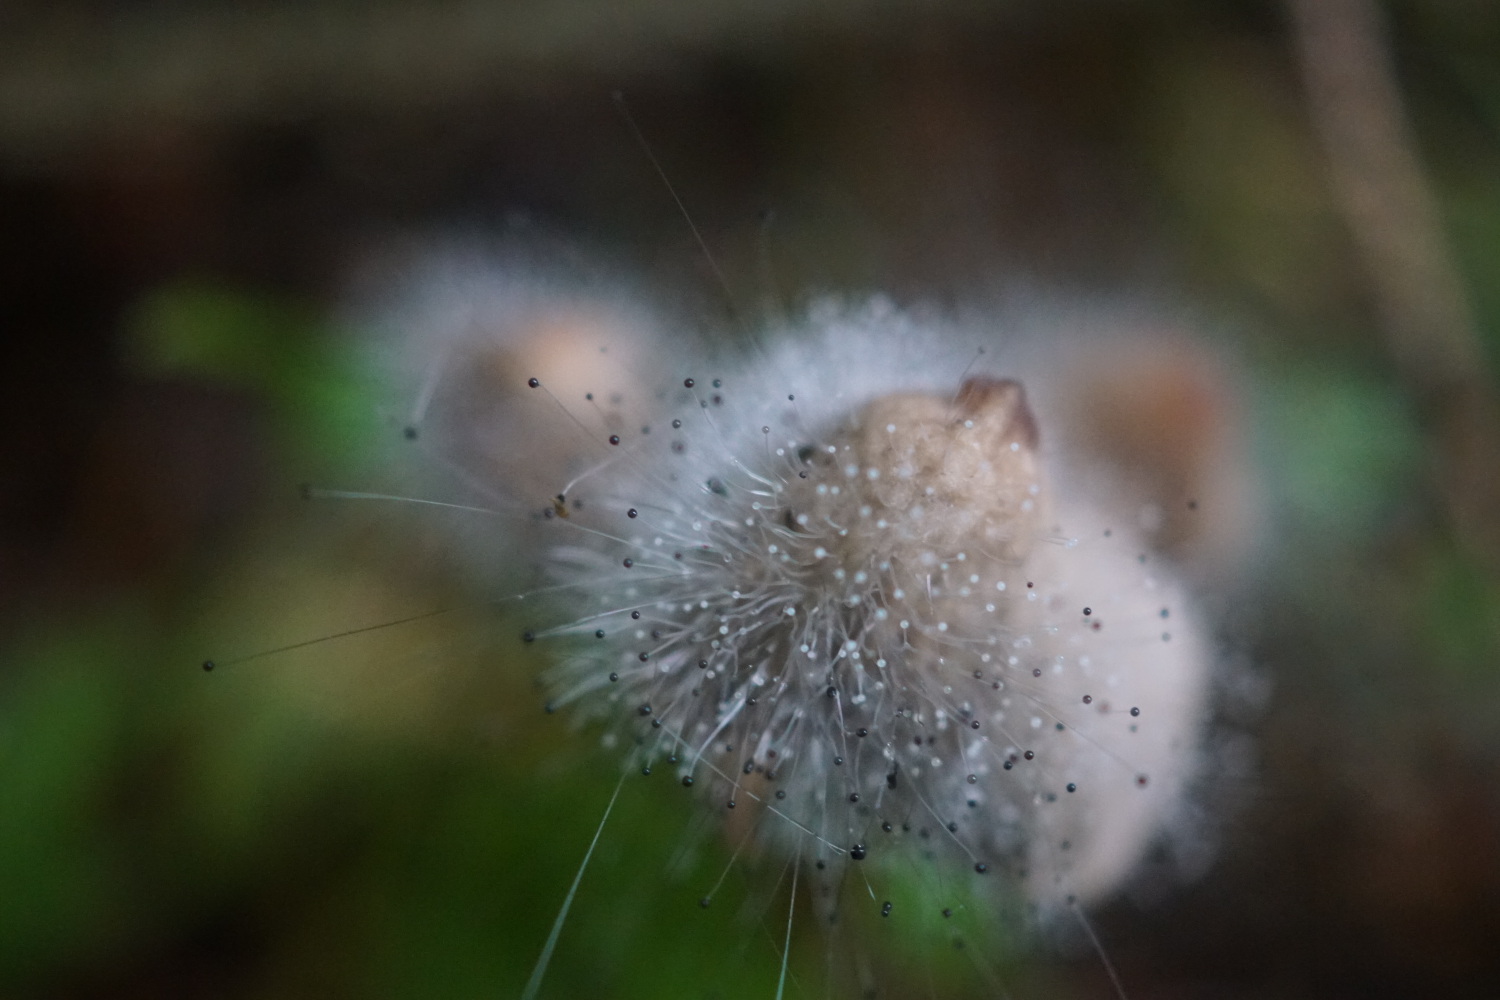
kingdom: Fungi
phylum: Mucoromycota
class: Mucoromycetes
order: Mucorales
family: Phycomycetaceae
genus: Spinellus
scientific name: Spinellus fusiger
